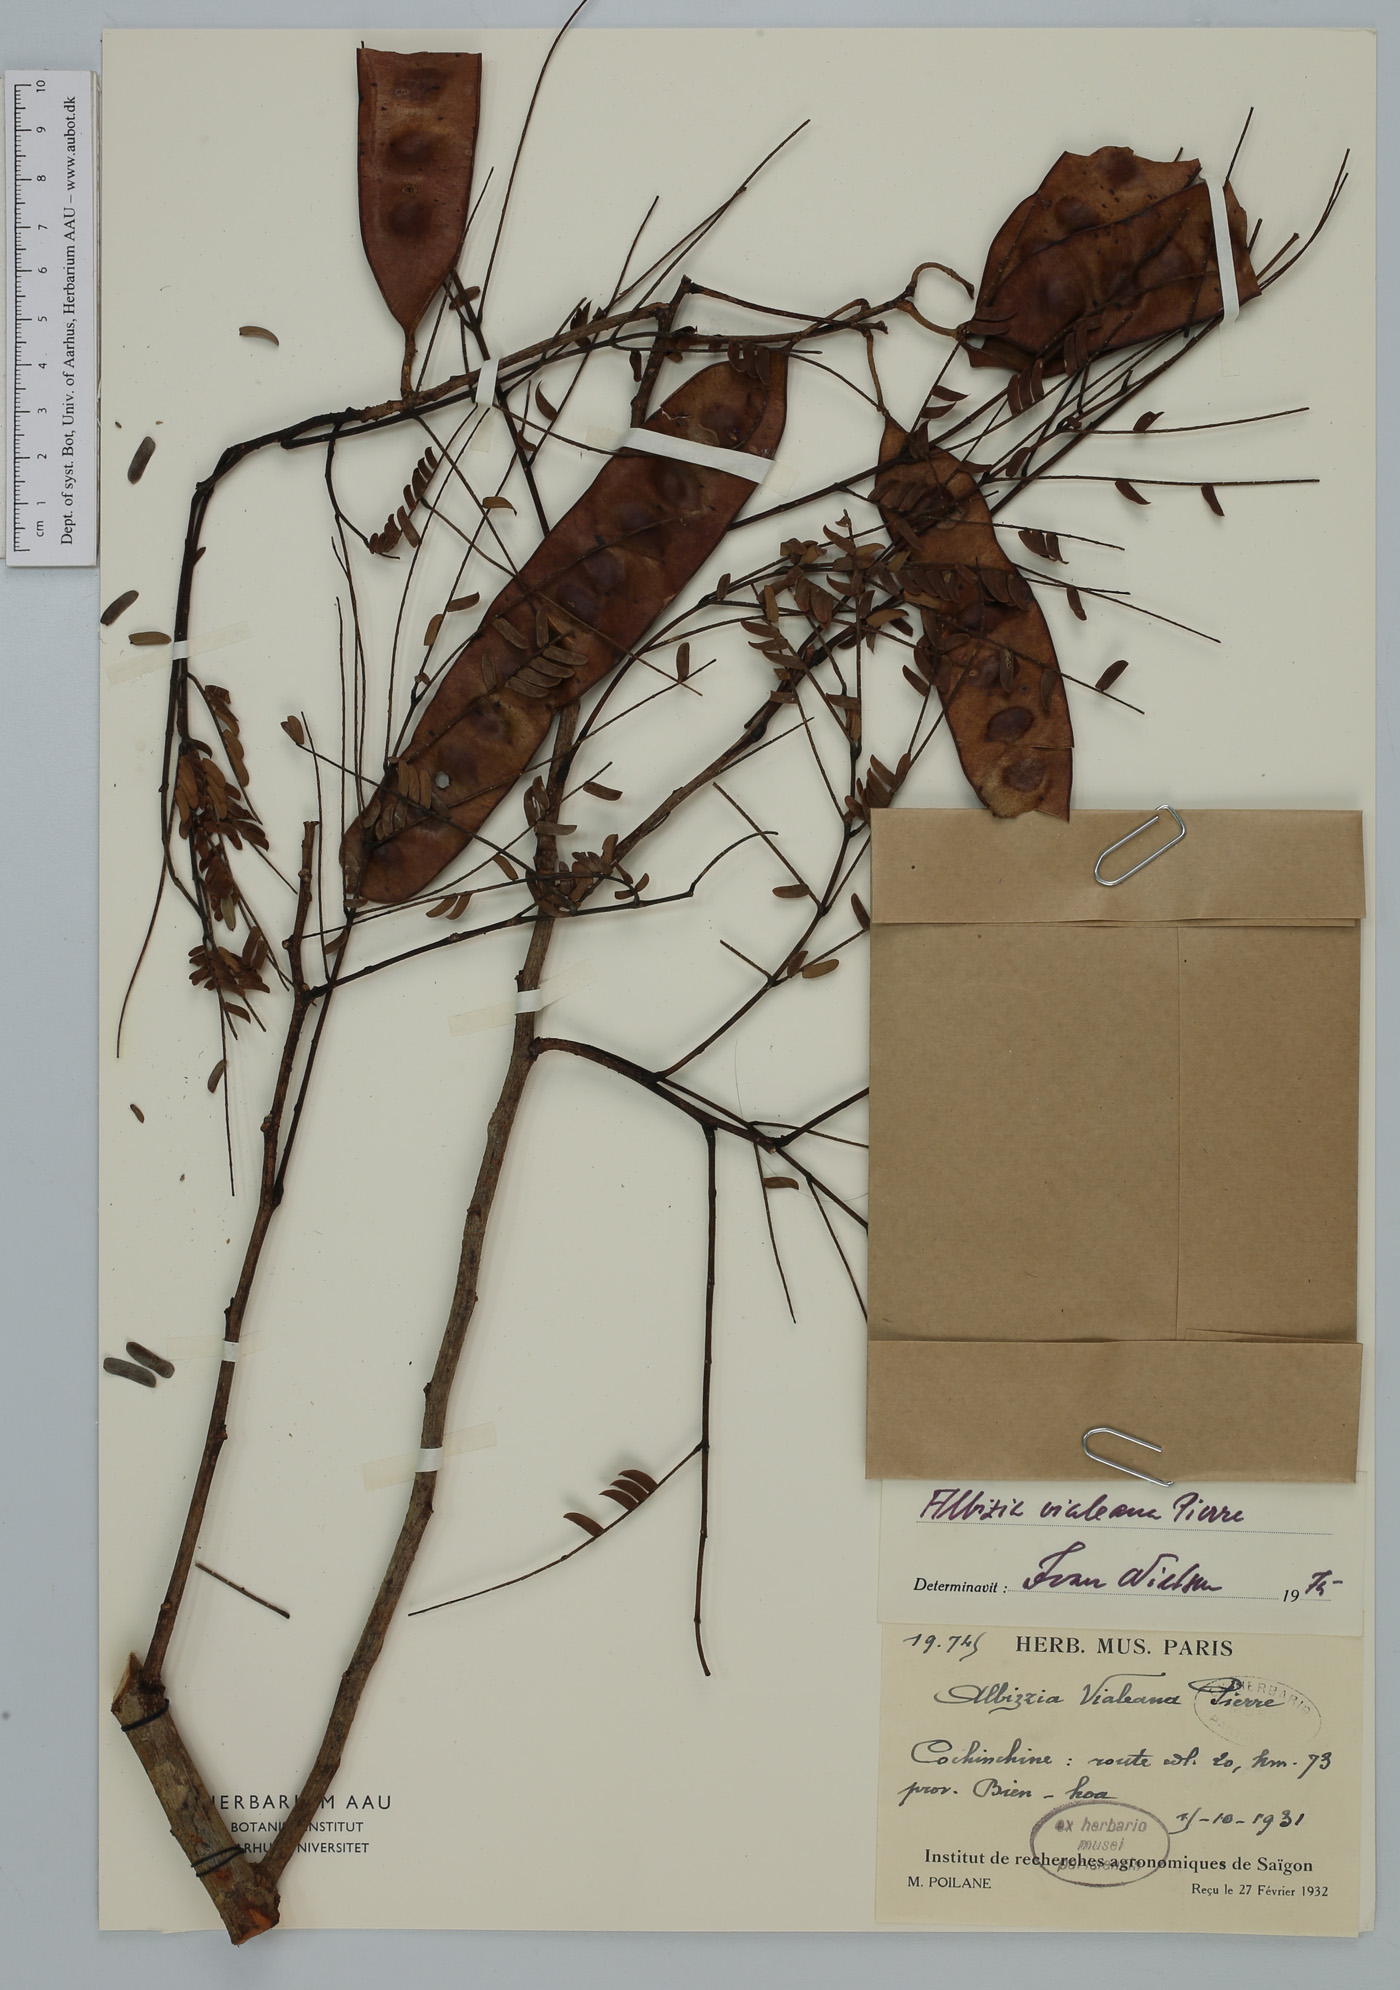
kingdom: Plantae
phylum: Tracheophyta
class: Magnoliopsida
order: Fabales
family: Fabaceae
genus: Albizia
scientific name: Albizia vialeana
